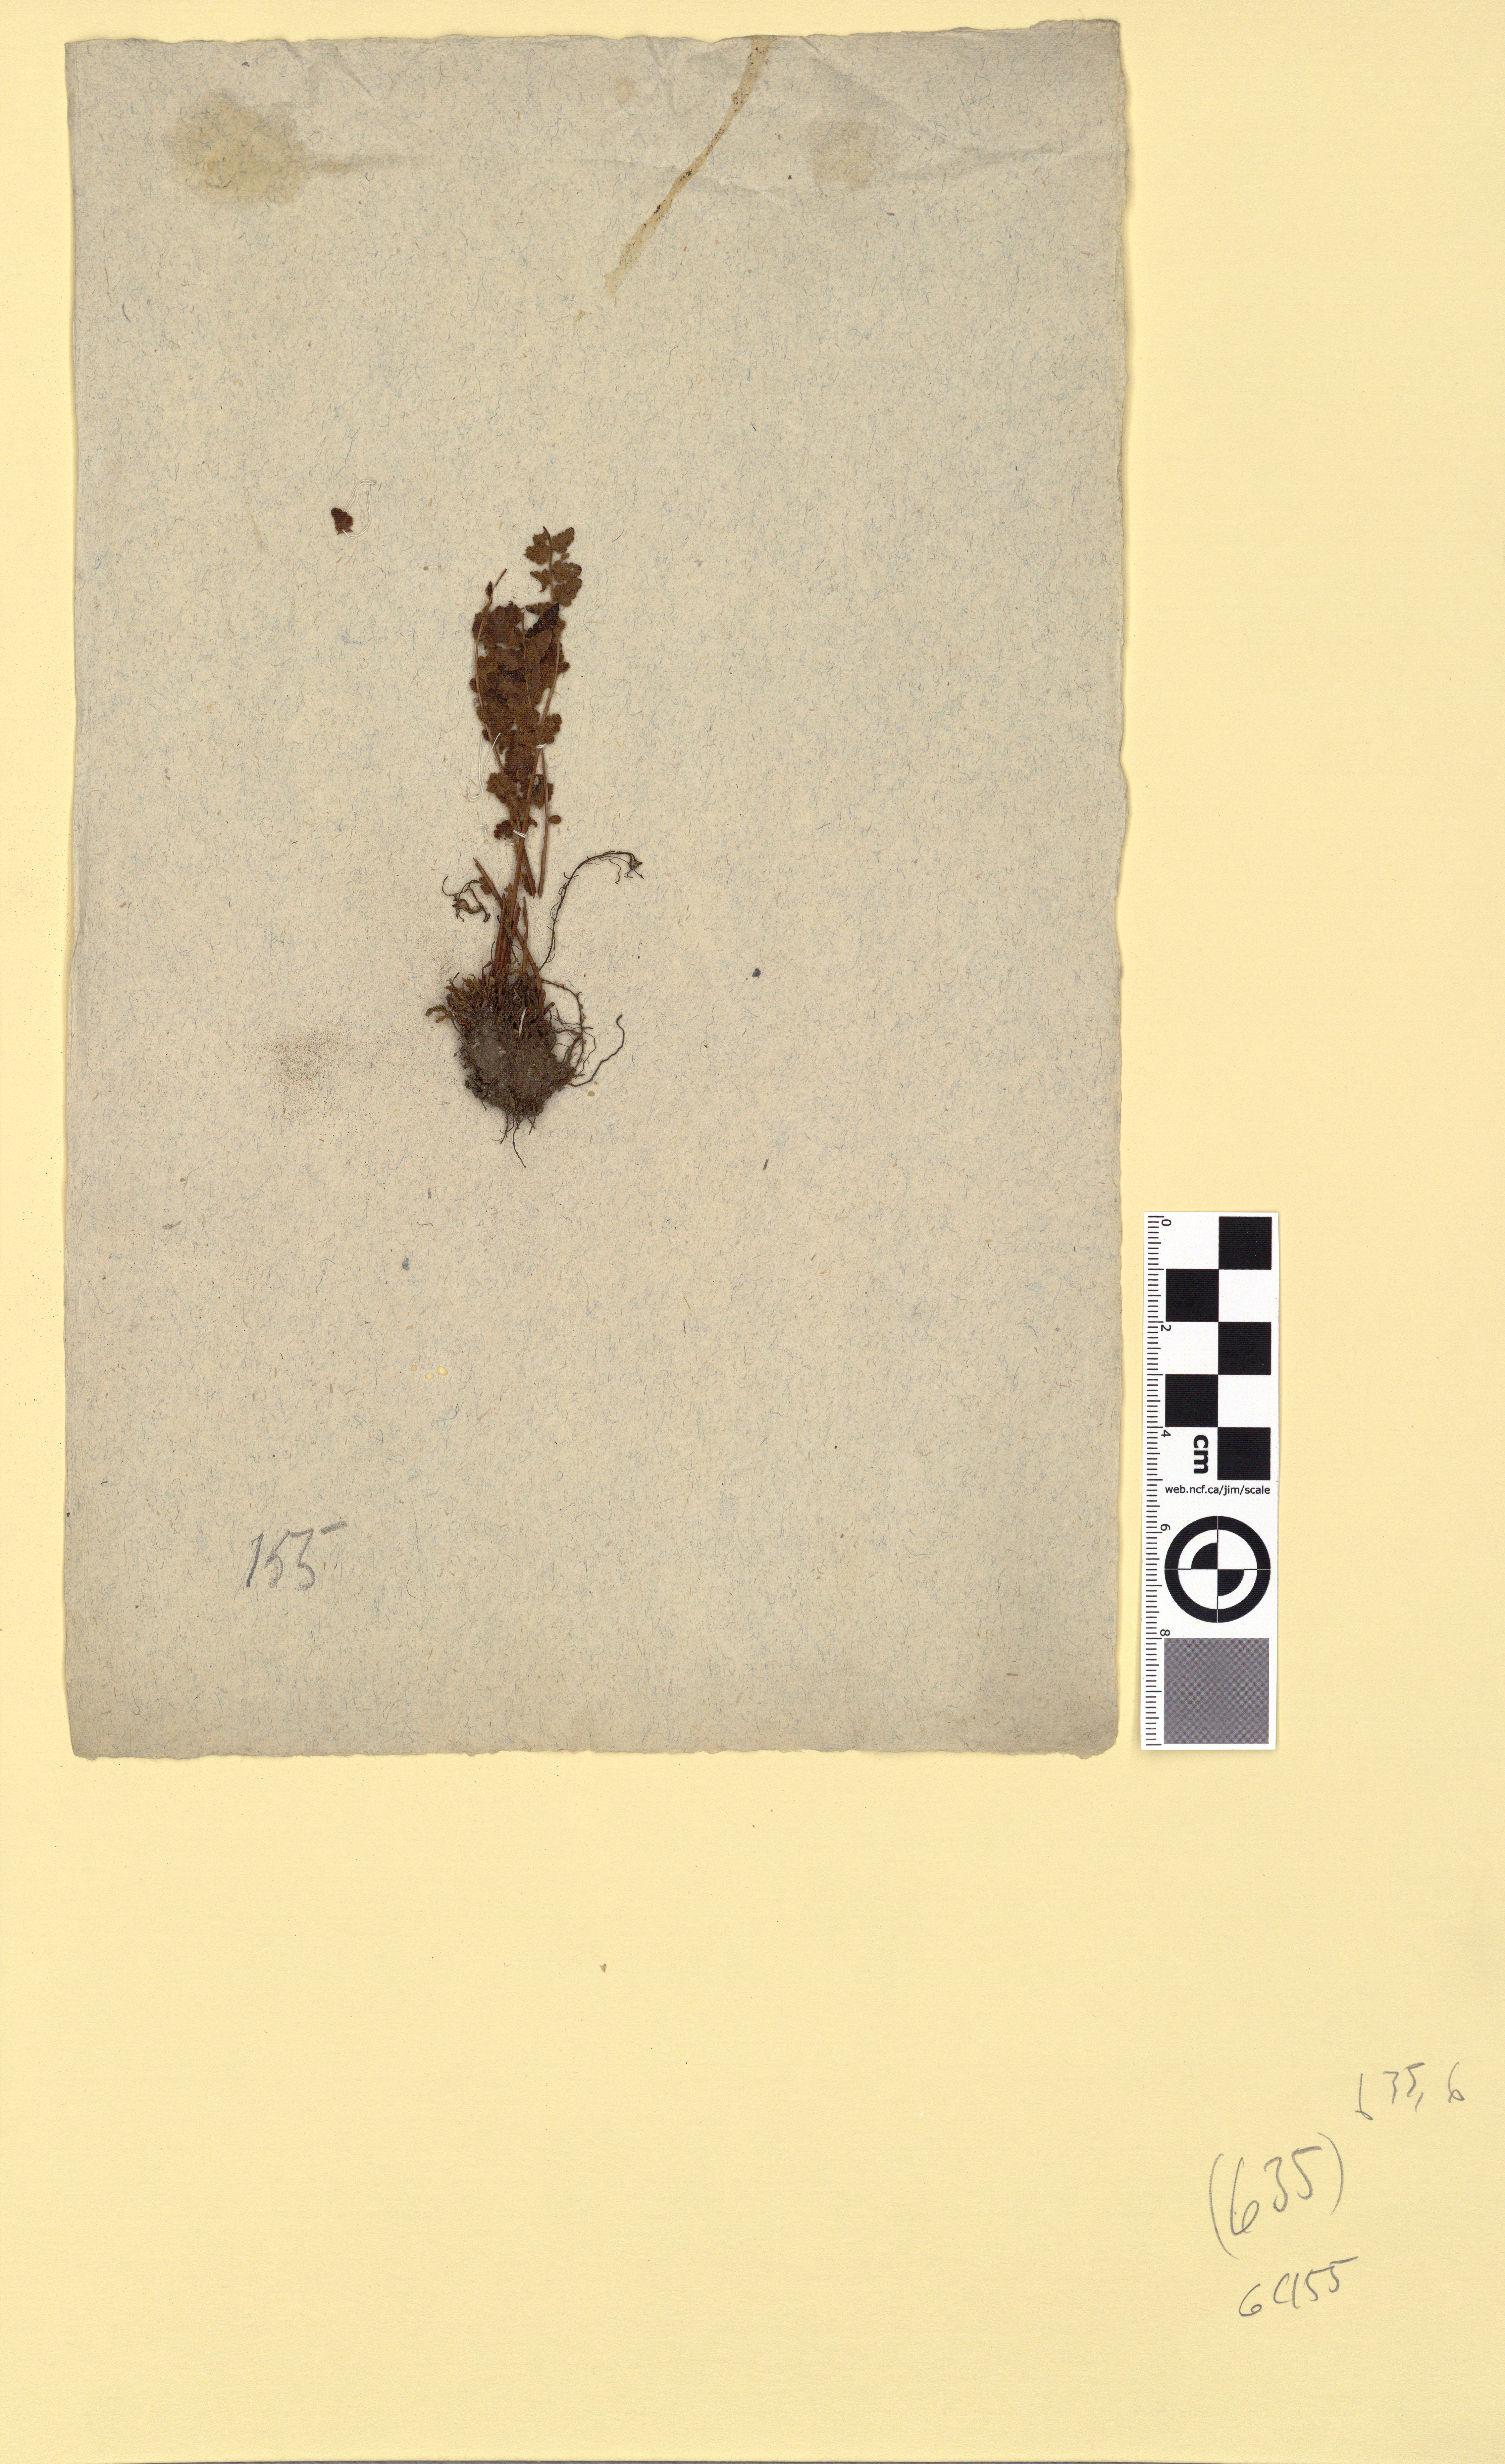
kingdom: Plantae
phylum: Tracheophyta
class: Polypodiopsida
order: Polypodiales
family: Woodsiaceae
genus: Woodsia
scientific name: Woodsia ilvensis
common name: Fragrant woodsia
